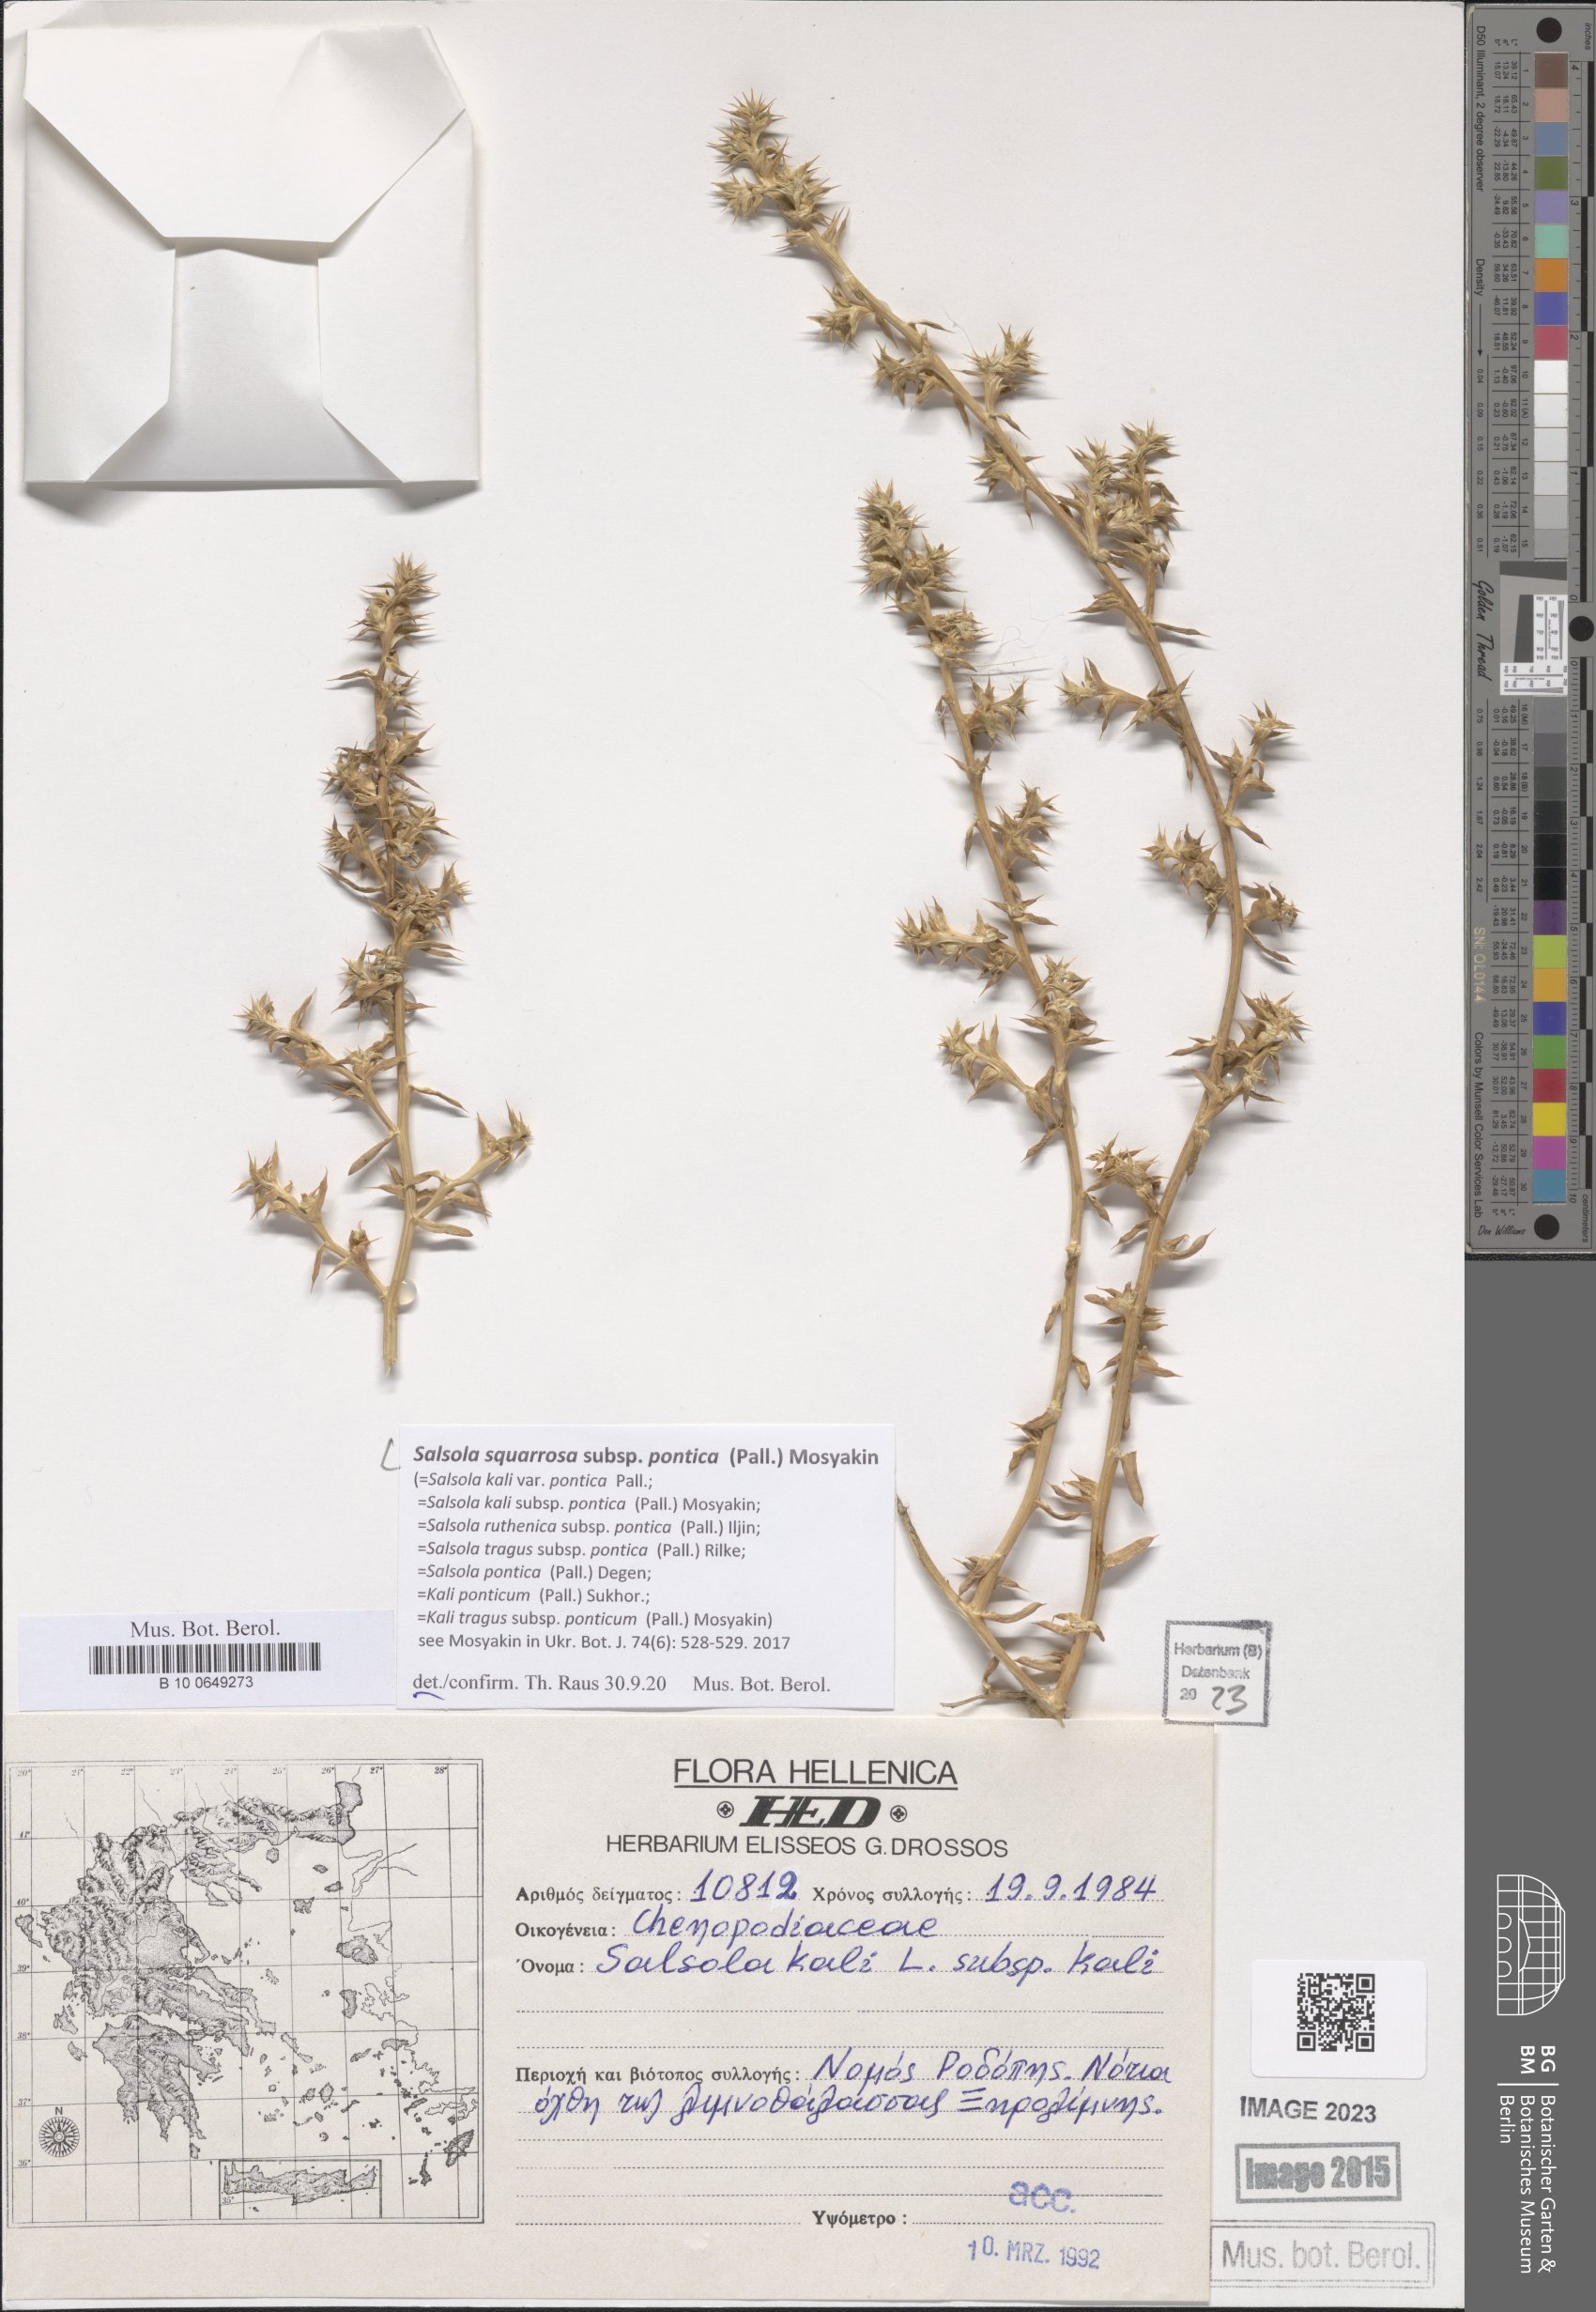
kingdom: Plantae
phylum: Tracheophyta
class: Magnoliopsida
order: Caryophyllales
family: Amaranthaceae
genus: Salsola
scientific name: Salsola squarrosa
